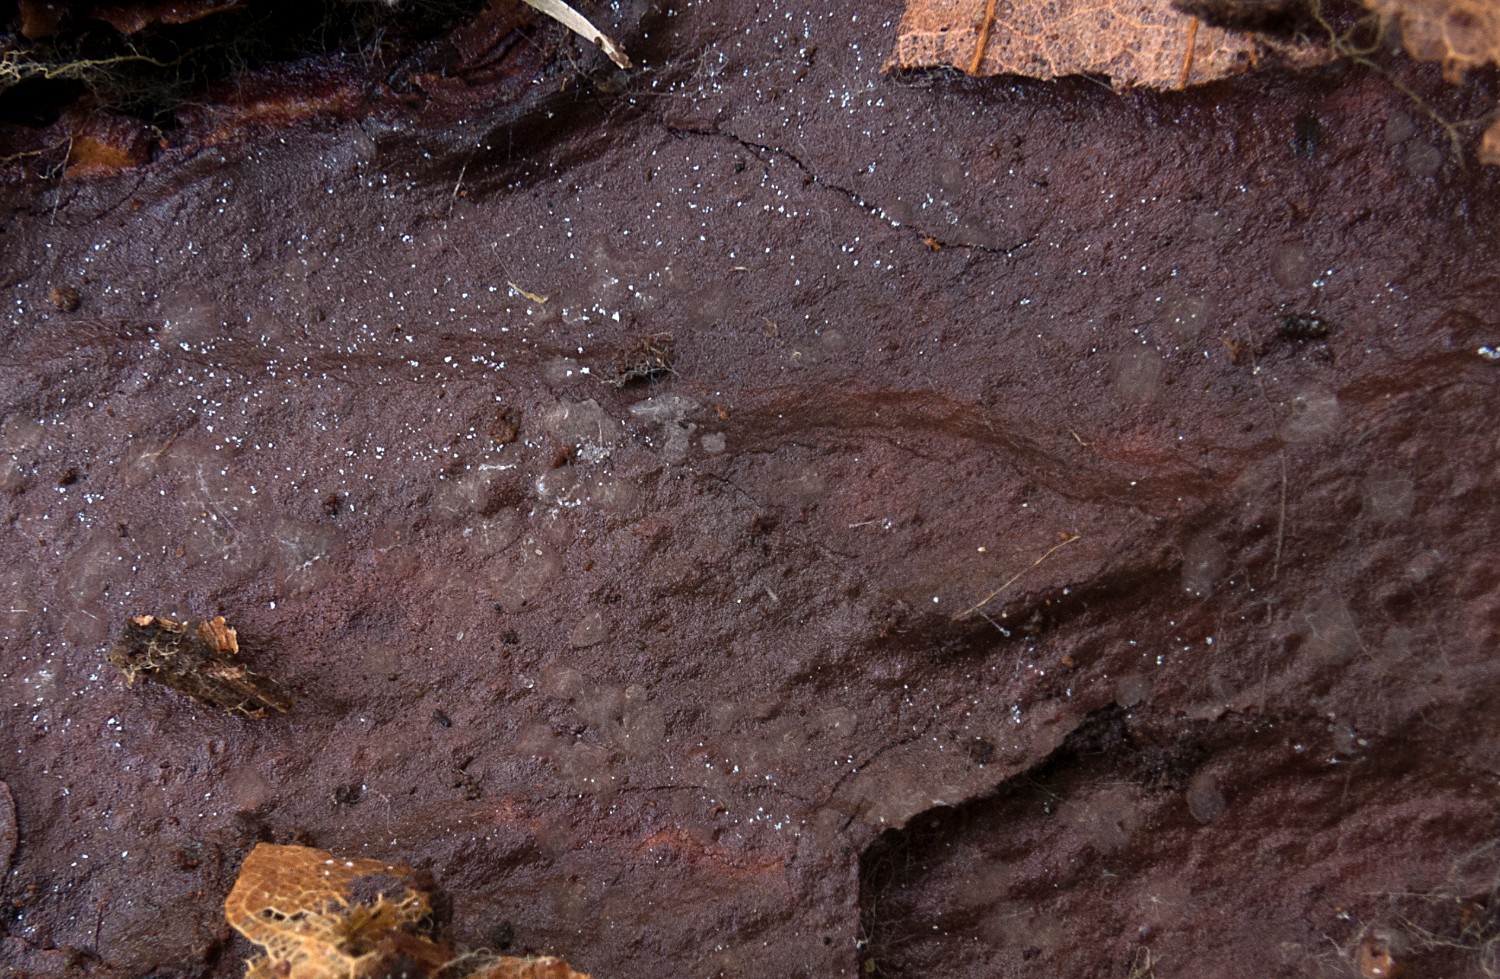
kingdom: Fungi
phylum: Ascomycota
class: Leotiomycetes
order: Helotiales
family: Ascocorticiaceae
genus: Ascocorticium
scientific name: Ascocorticium anomalum
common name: almindelig sækhinde
